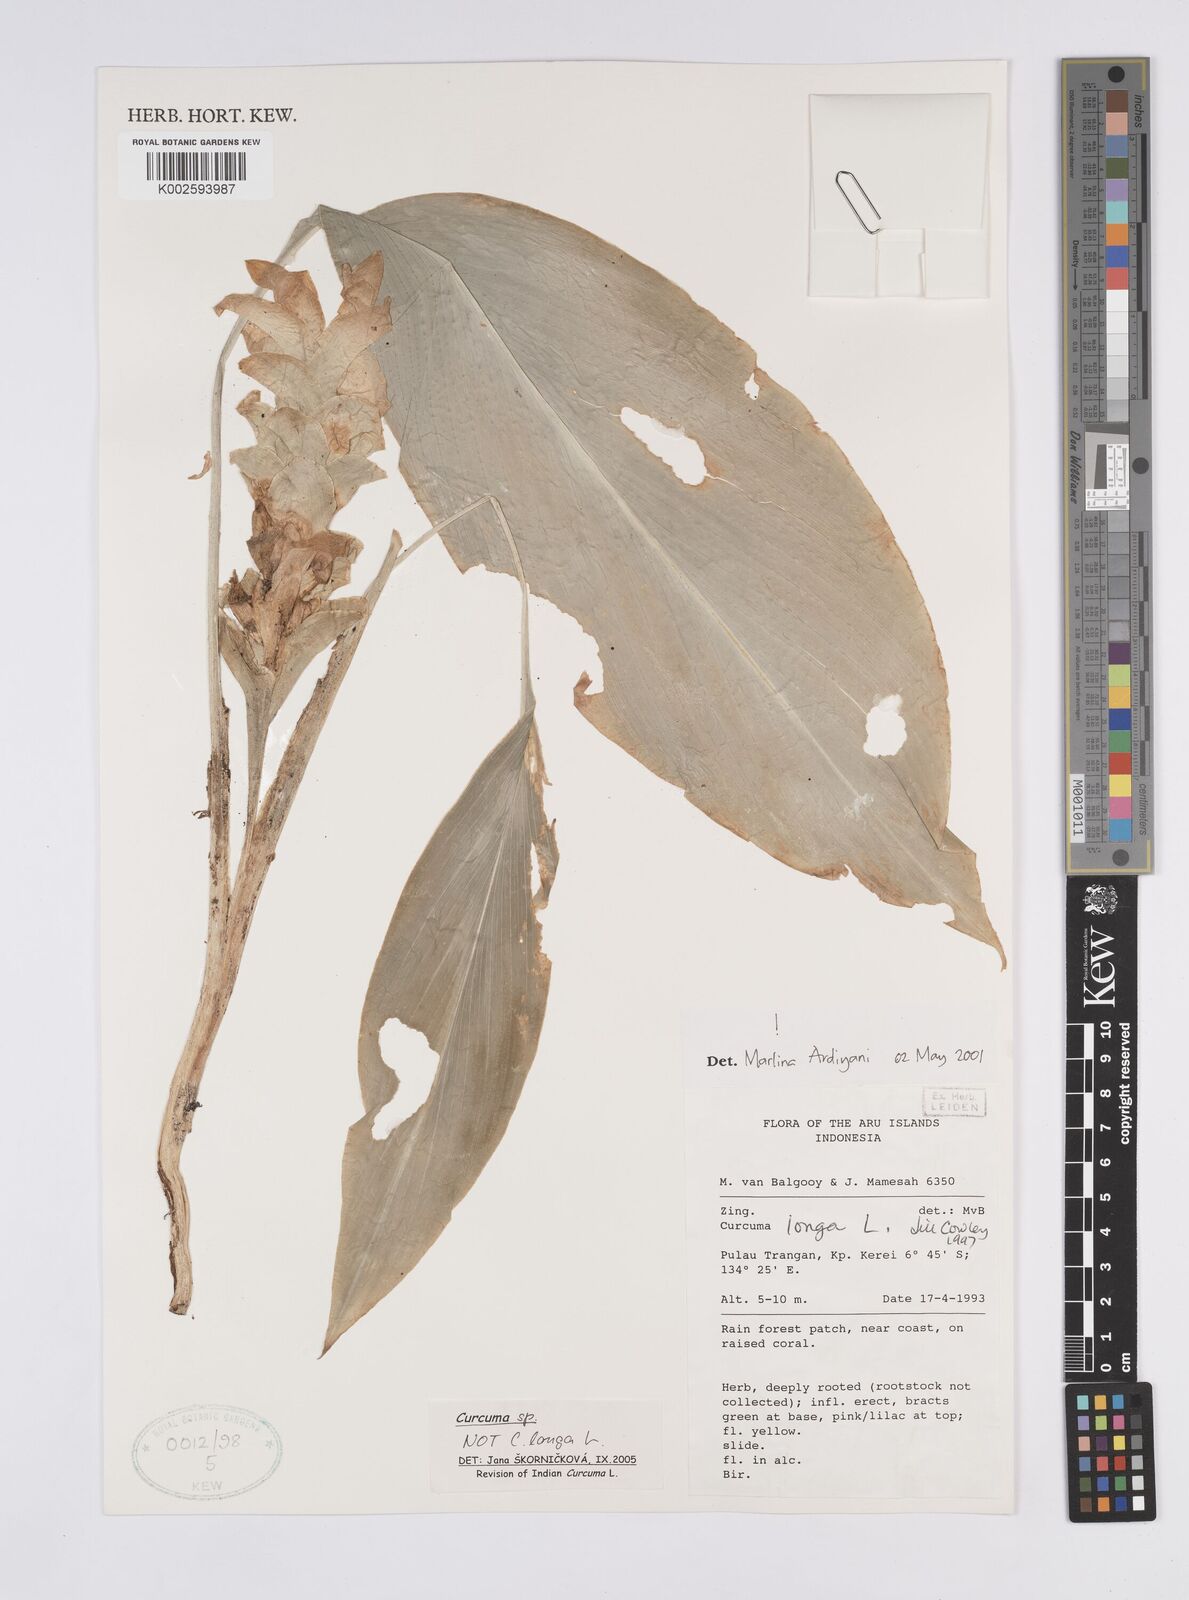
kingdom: Plantae
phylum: Tracheophyta
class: Liliopsida
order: Zingiberales
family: Zingiberaceae
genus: Curcuma
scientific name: Curcuma longa
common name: Turmeric
